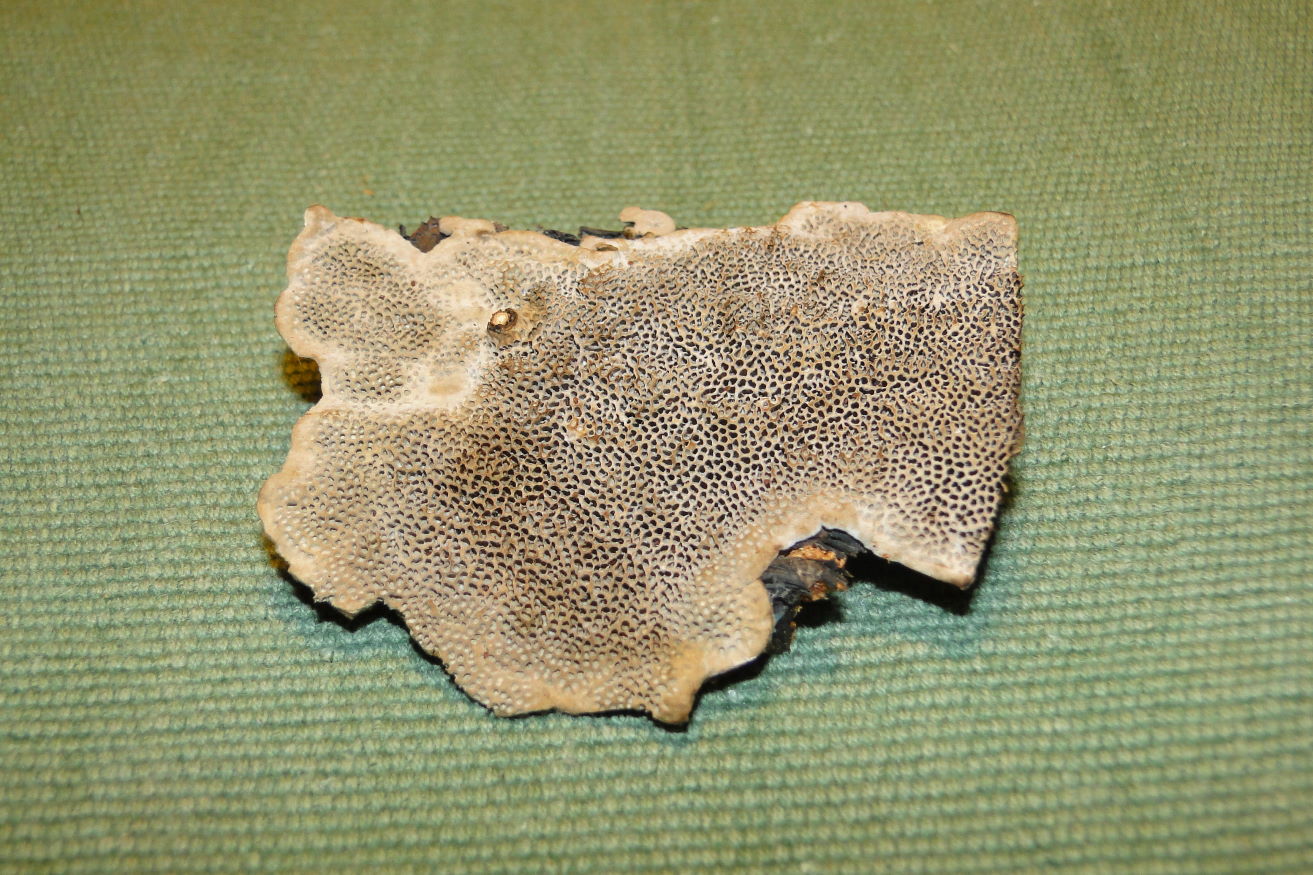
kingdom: Fungi
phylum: Basidiomycota
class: Agaricomycetes
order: Polyporales
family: Polyporaceae
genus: Podofomes
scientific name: Podofomes mollis
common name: blød begporesvamp
